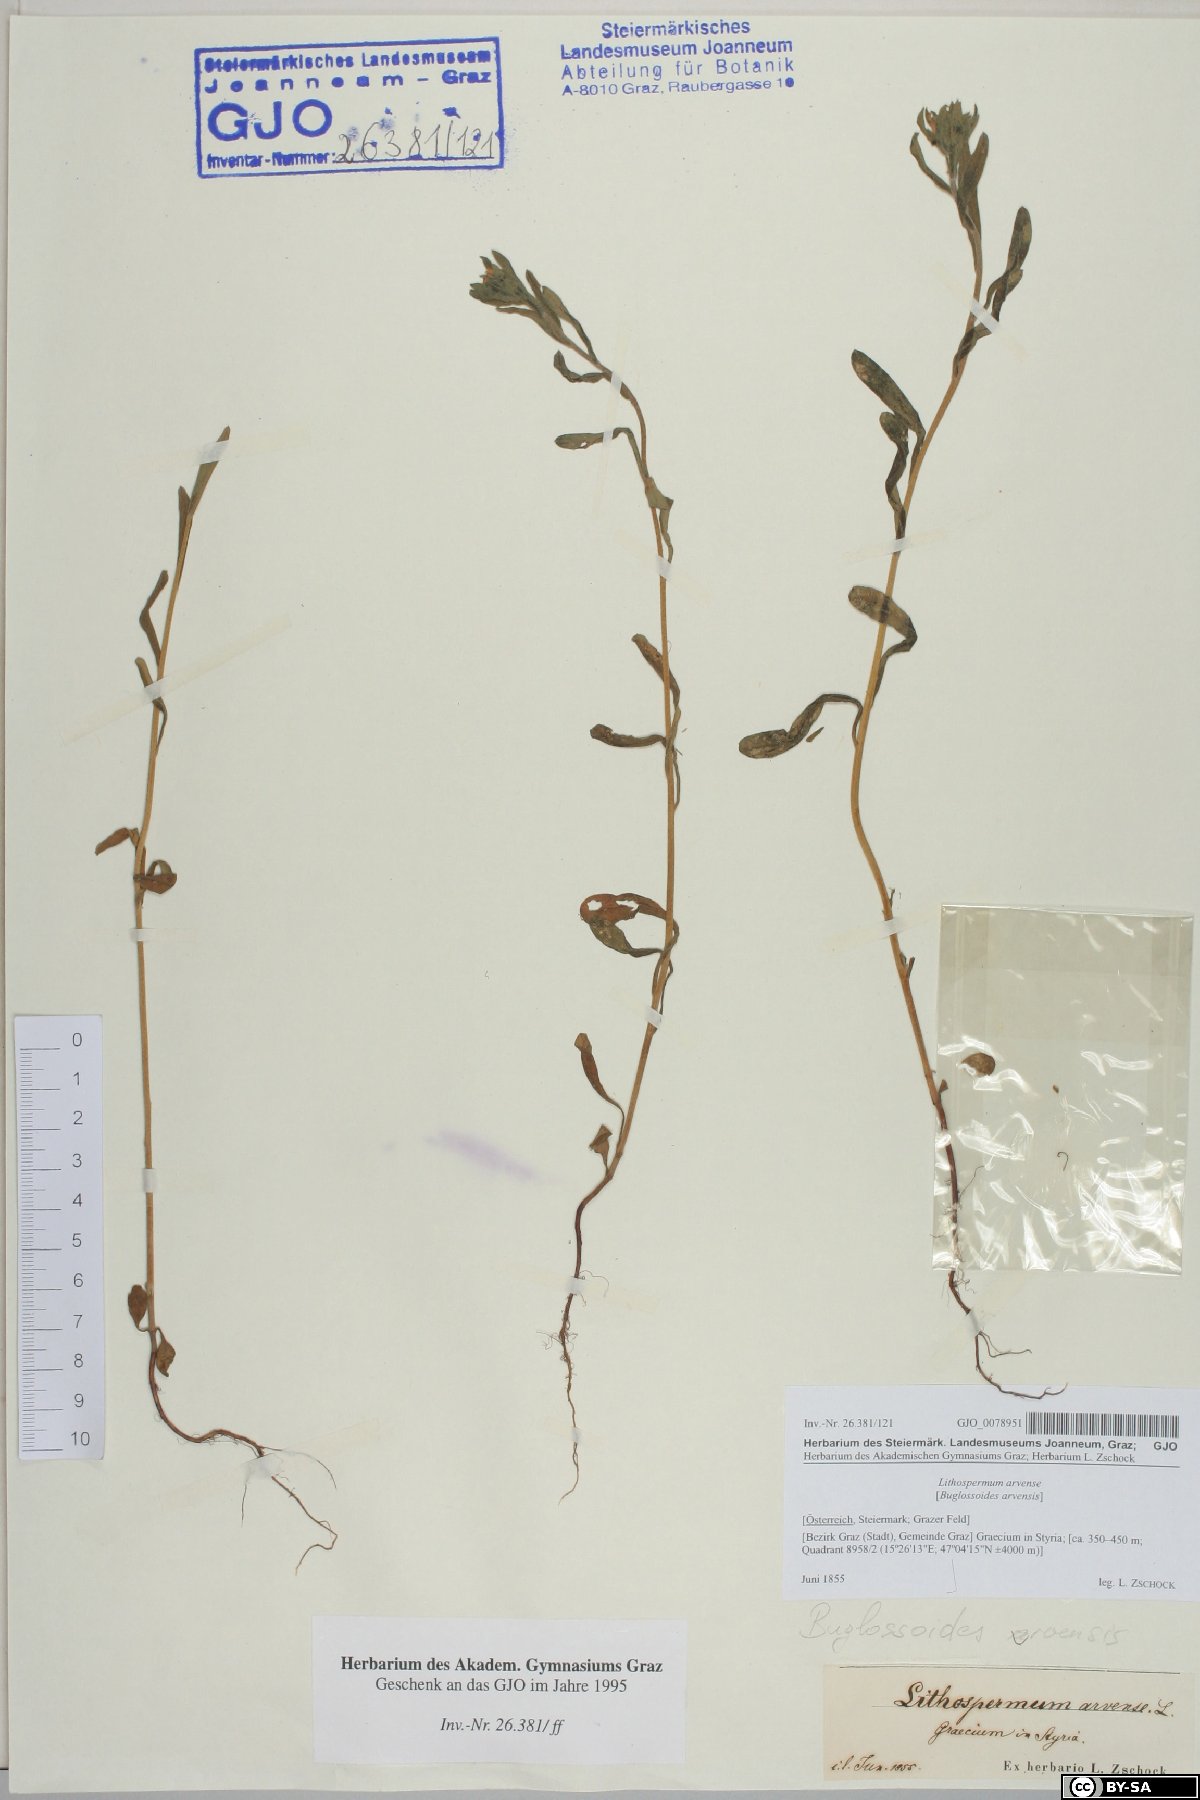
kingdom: Plantae
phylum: Tracheophyta
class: Magnoliopsida
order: Boraginales
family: Boraginaceae
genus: Buglossoides
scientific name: Buglossoides arvensis
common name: Corn gromwell
